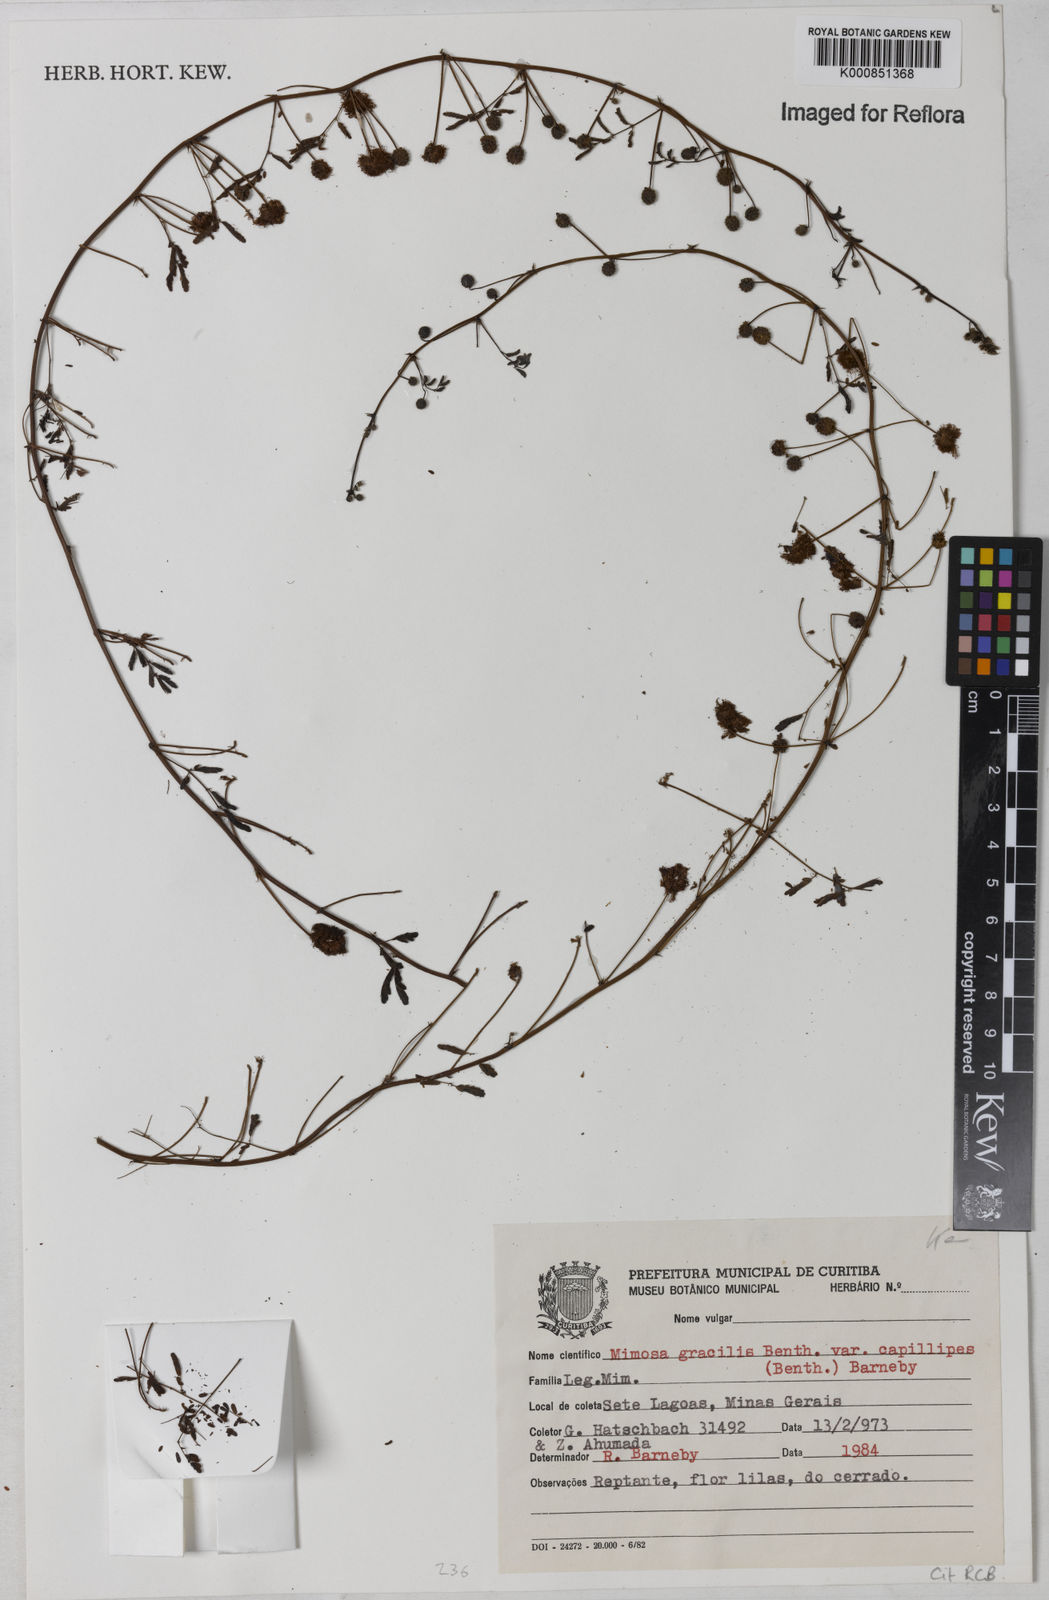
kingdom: Plantae
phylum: Tracheophyta
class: Magnoliopsida
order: Fabales
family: Fabaceae
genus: Mimosa
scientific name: Mimosa gracilis
